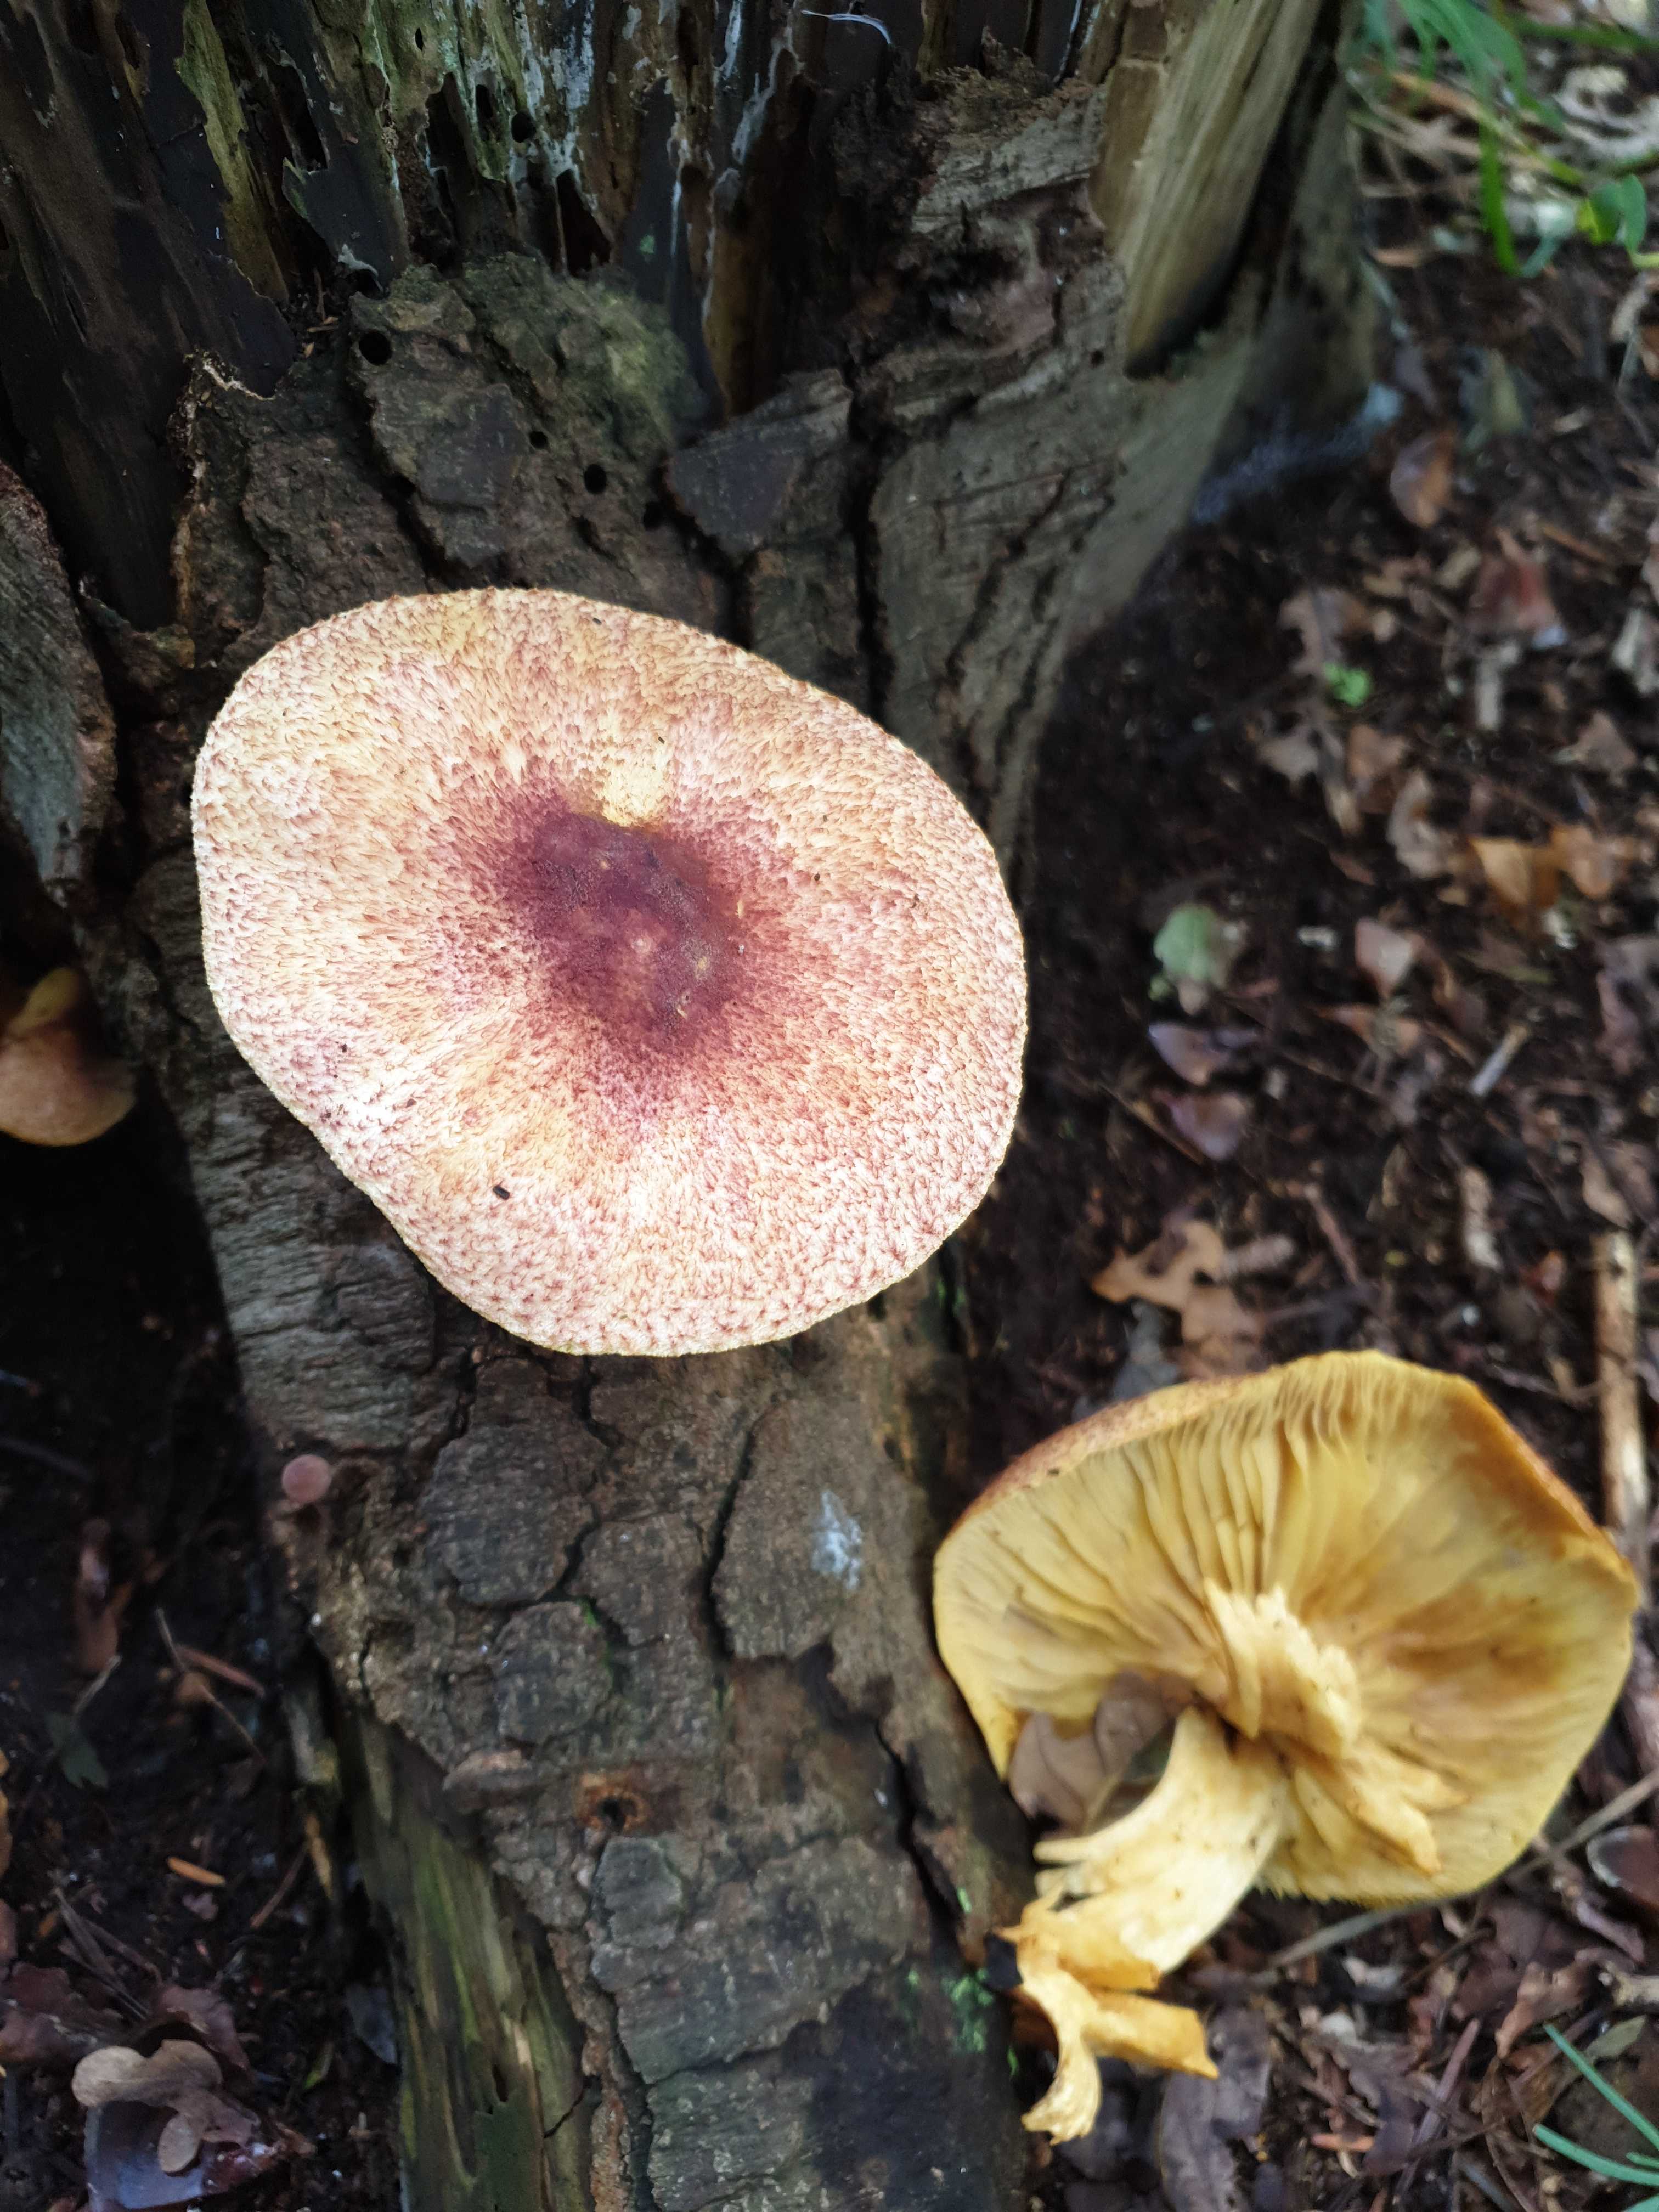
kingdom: Fungi
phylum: Basidiomycota
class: Agaricomycetes
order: Agaricales
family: Tricholomataceae
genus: Tricholomopsis
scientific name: Tricholomopsis rutilans
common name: purpur-væbnerhat
